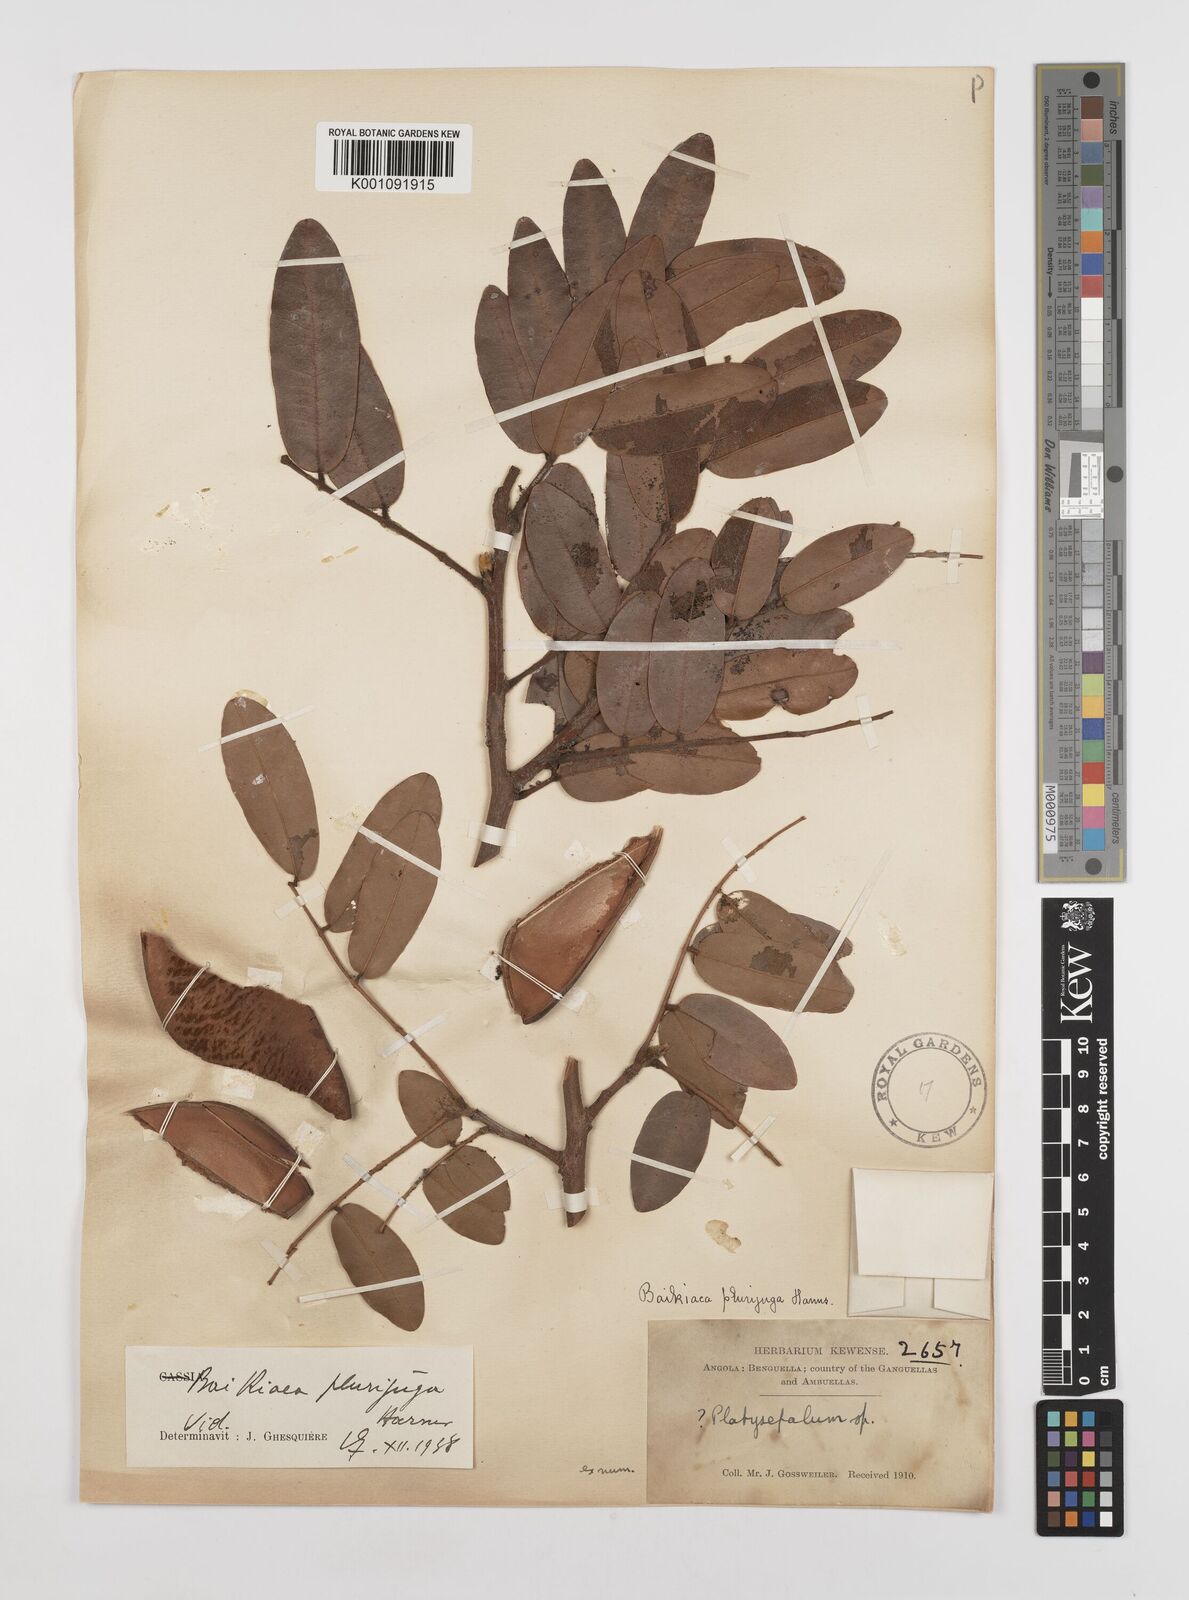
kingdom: Plantae
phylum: Tracheophyta
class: Magnoliopsida
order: Fabales
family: Fabaceae
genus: Baikiaea
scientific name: Baikiaea plurijuga
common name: Rhodesian-teak
